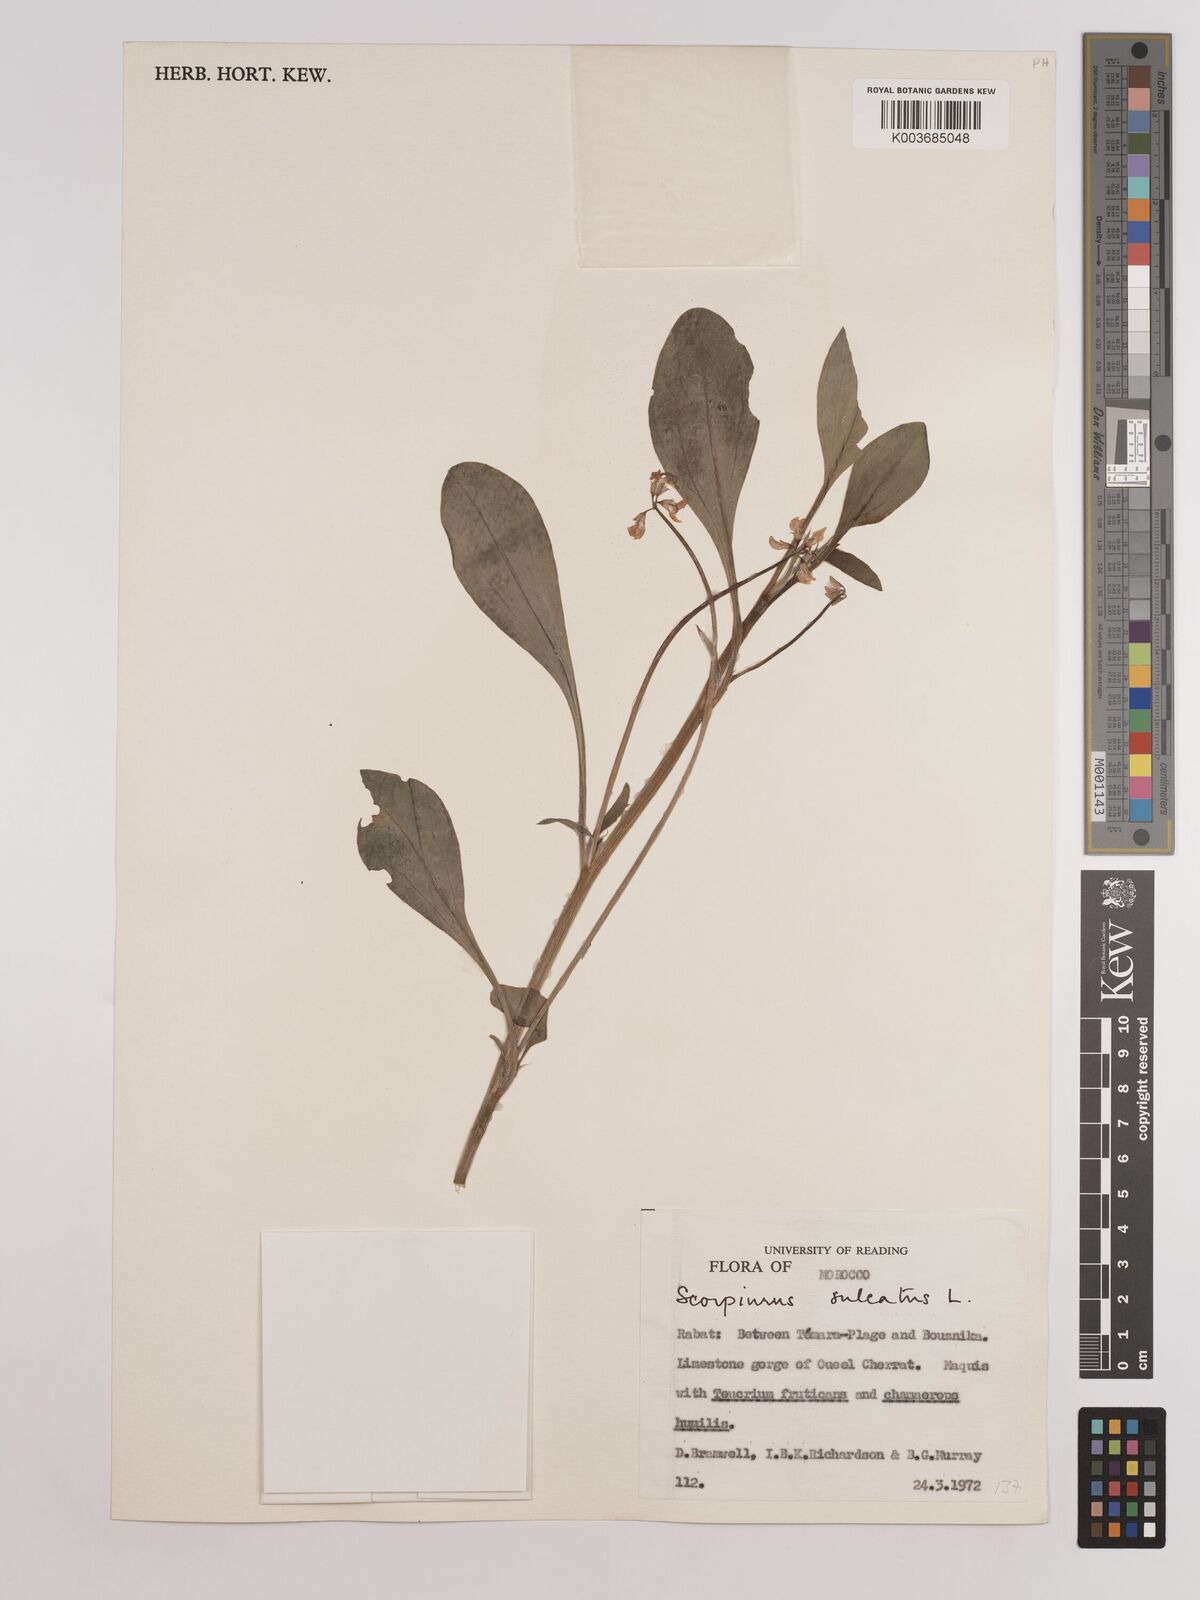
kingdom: Plantae
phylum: Tracheophyta
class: Magnoliopsida
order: Fabales
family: Fabaceae
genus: Scorpiurus
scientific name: Scorpiurus muricatus
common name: Caterpillar-plant
